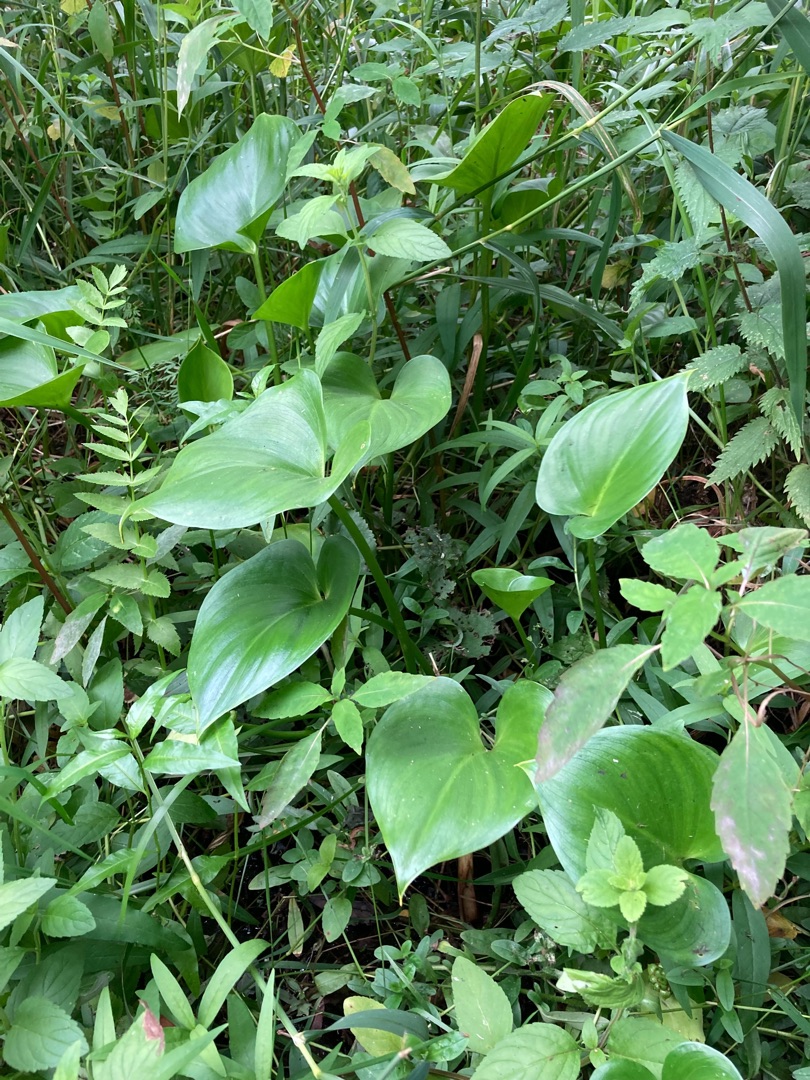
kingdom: Plantae
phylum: Tracheophyta
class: Liliopsida
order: Alismatales
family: Araceae
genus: Calla
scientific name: Calla palustris
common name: Kærmysse
